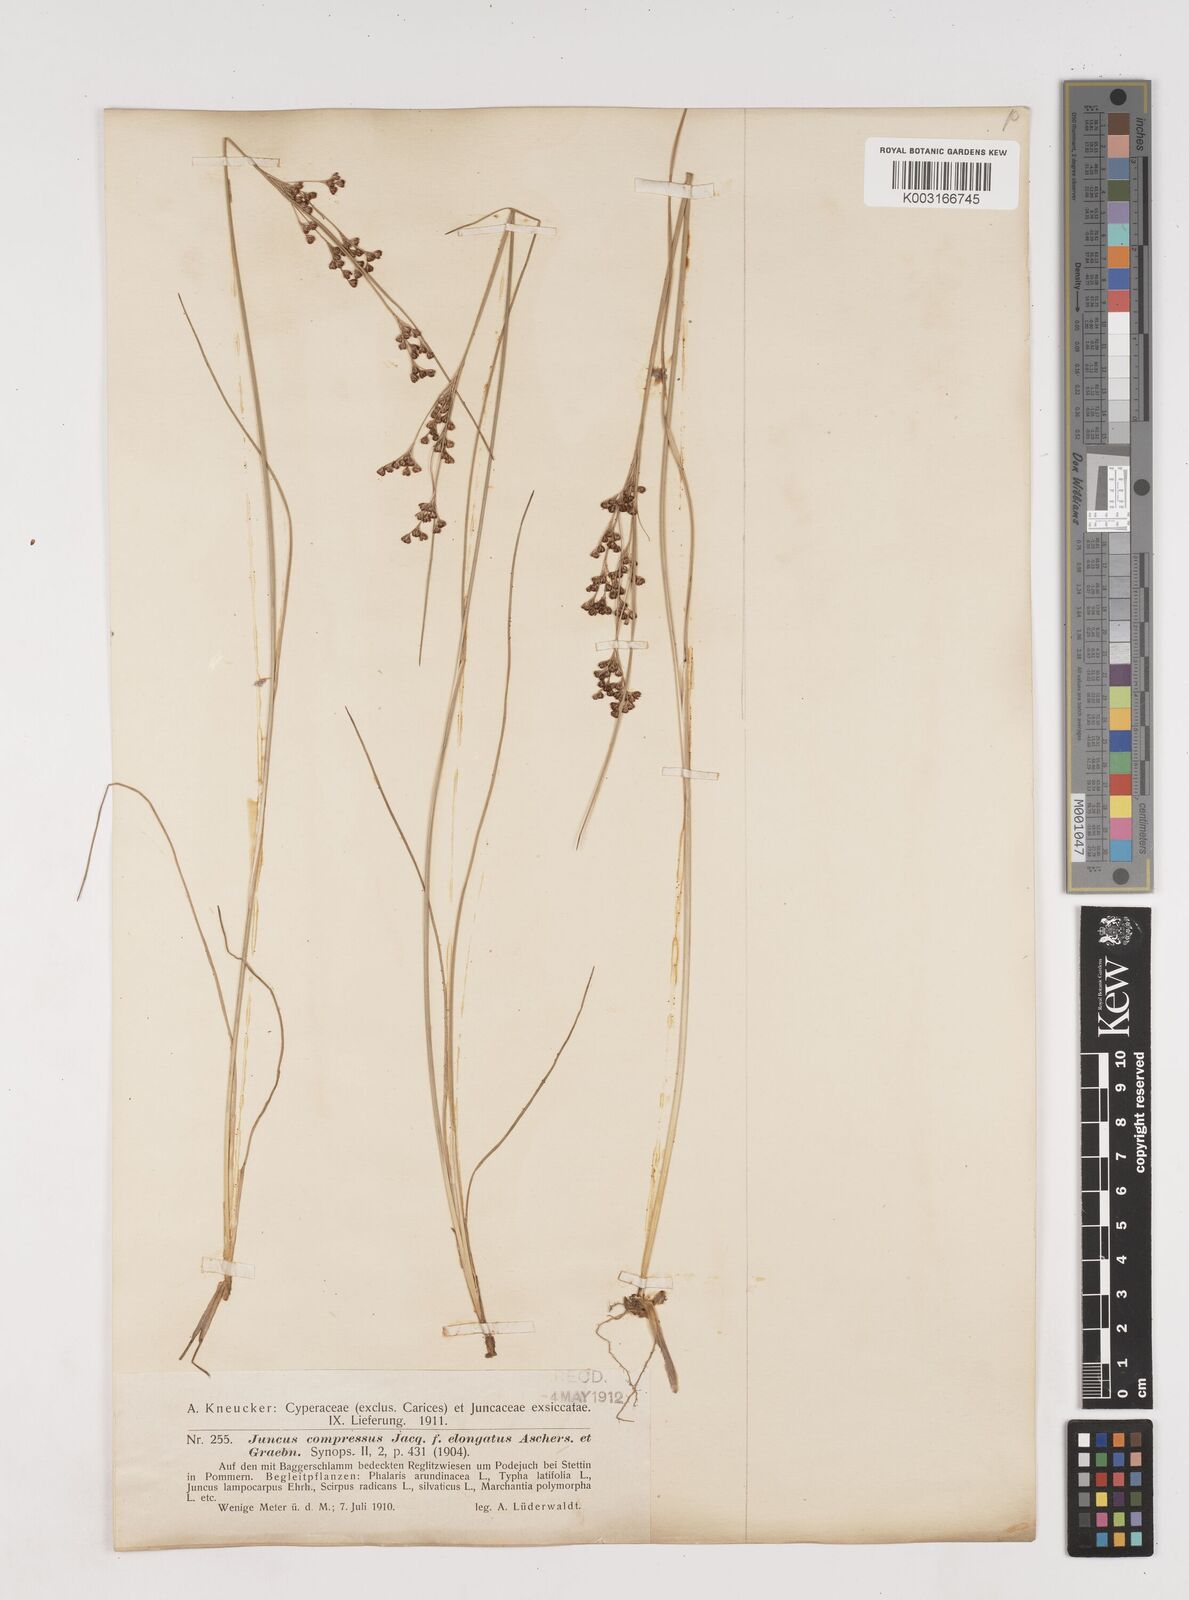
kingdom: Plantae
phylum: Tracheophyta
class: Liliopsida
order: Poales
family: Juncaceae
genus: Juncus
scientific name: Juncus
